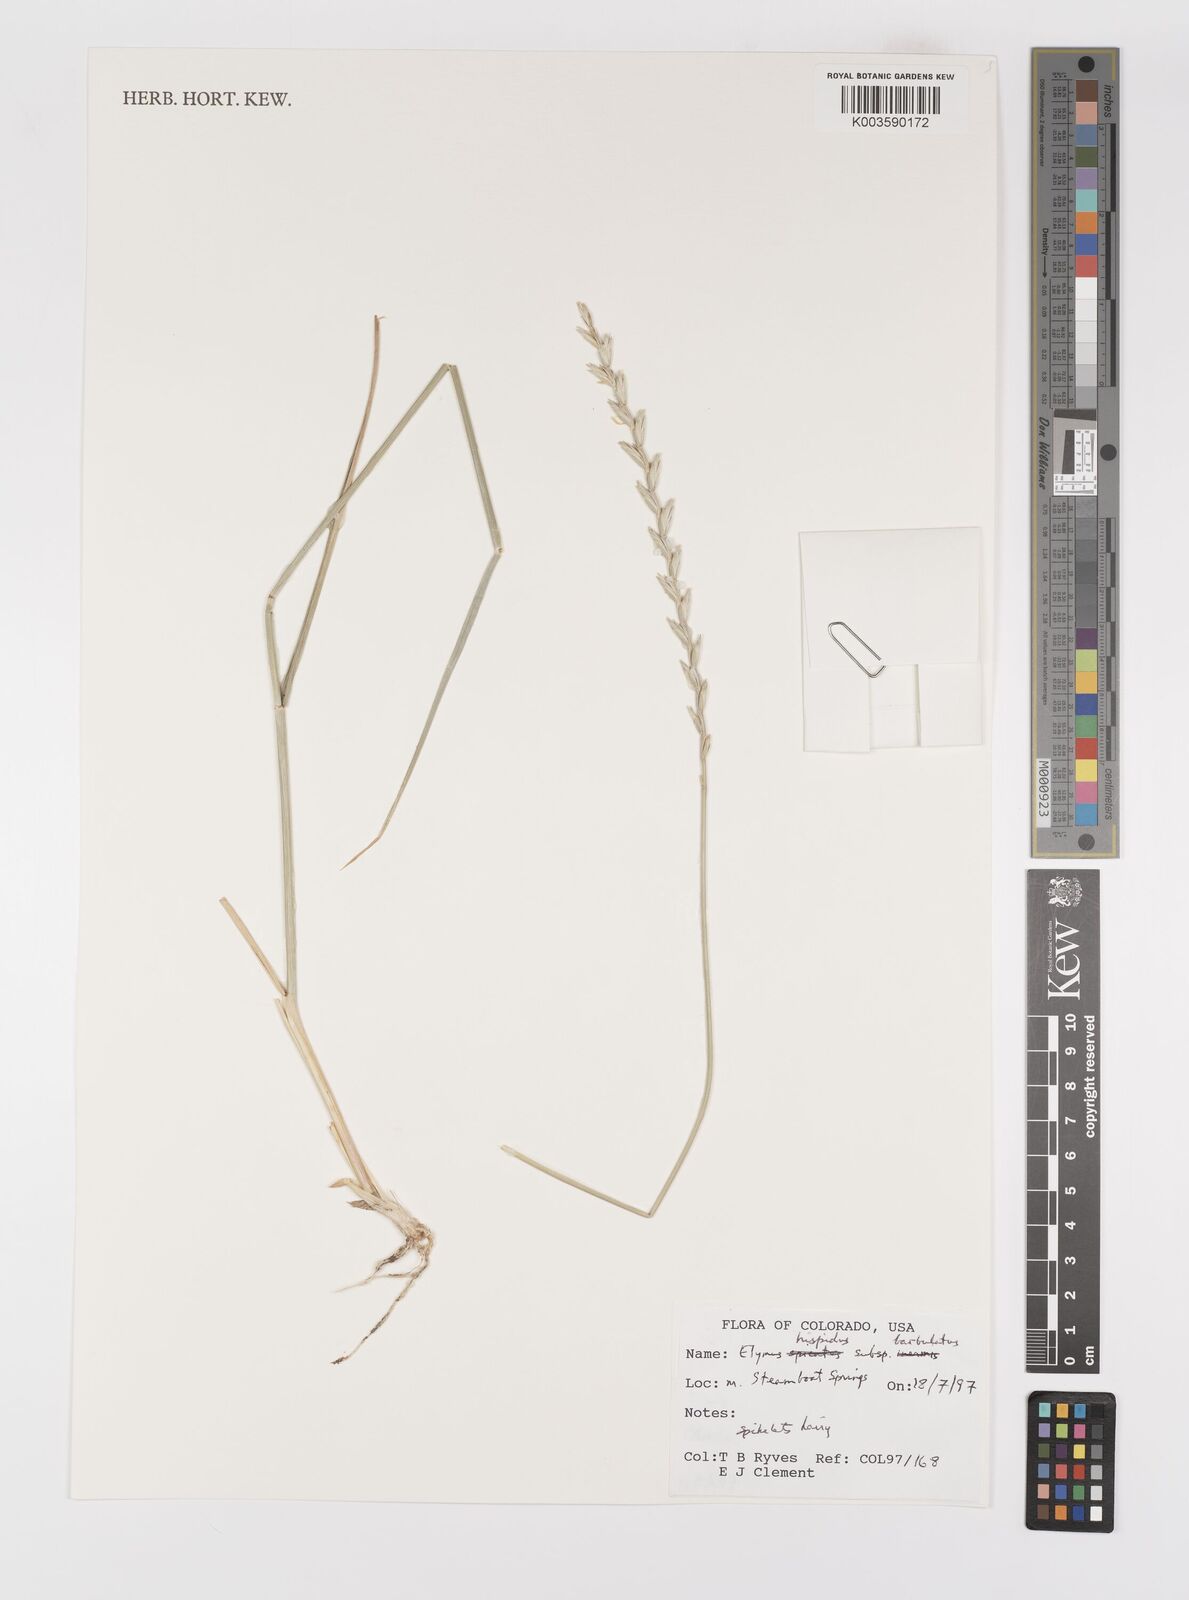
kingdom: Plantae
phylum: Tracheophyta
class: Liliopsida
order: Poales
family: Poaceae
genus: Thinopyrum
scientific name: Thinopyrum intermedium
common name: Intermediate wheatgrass
